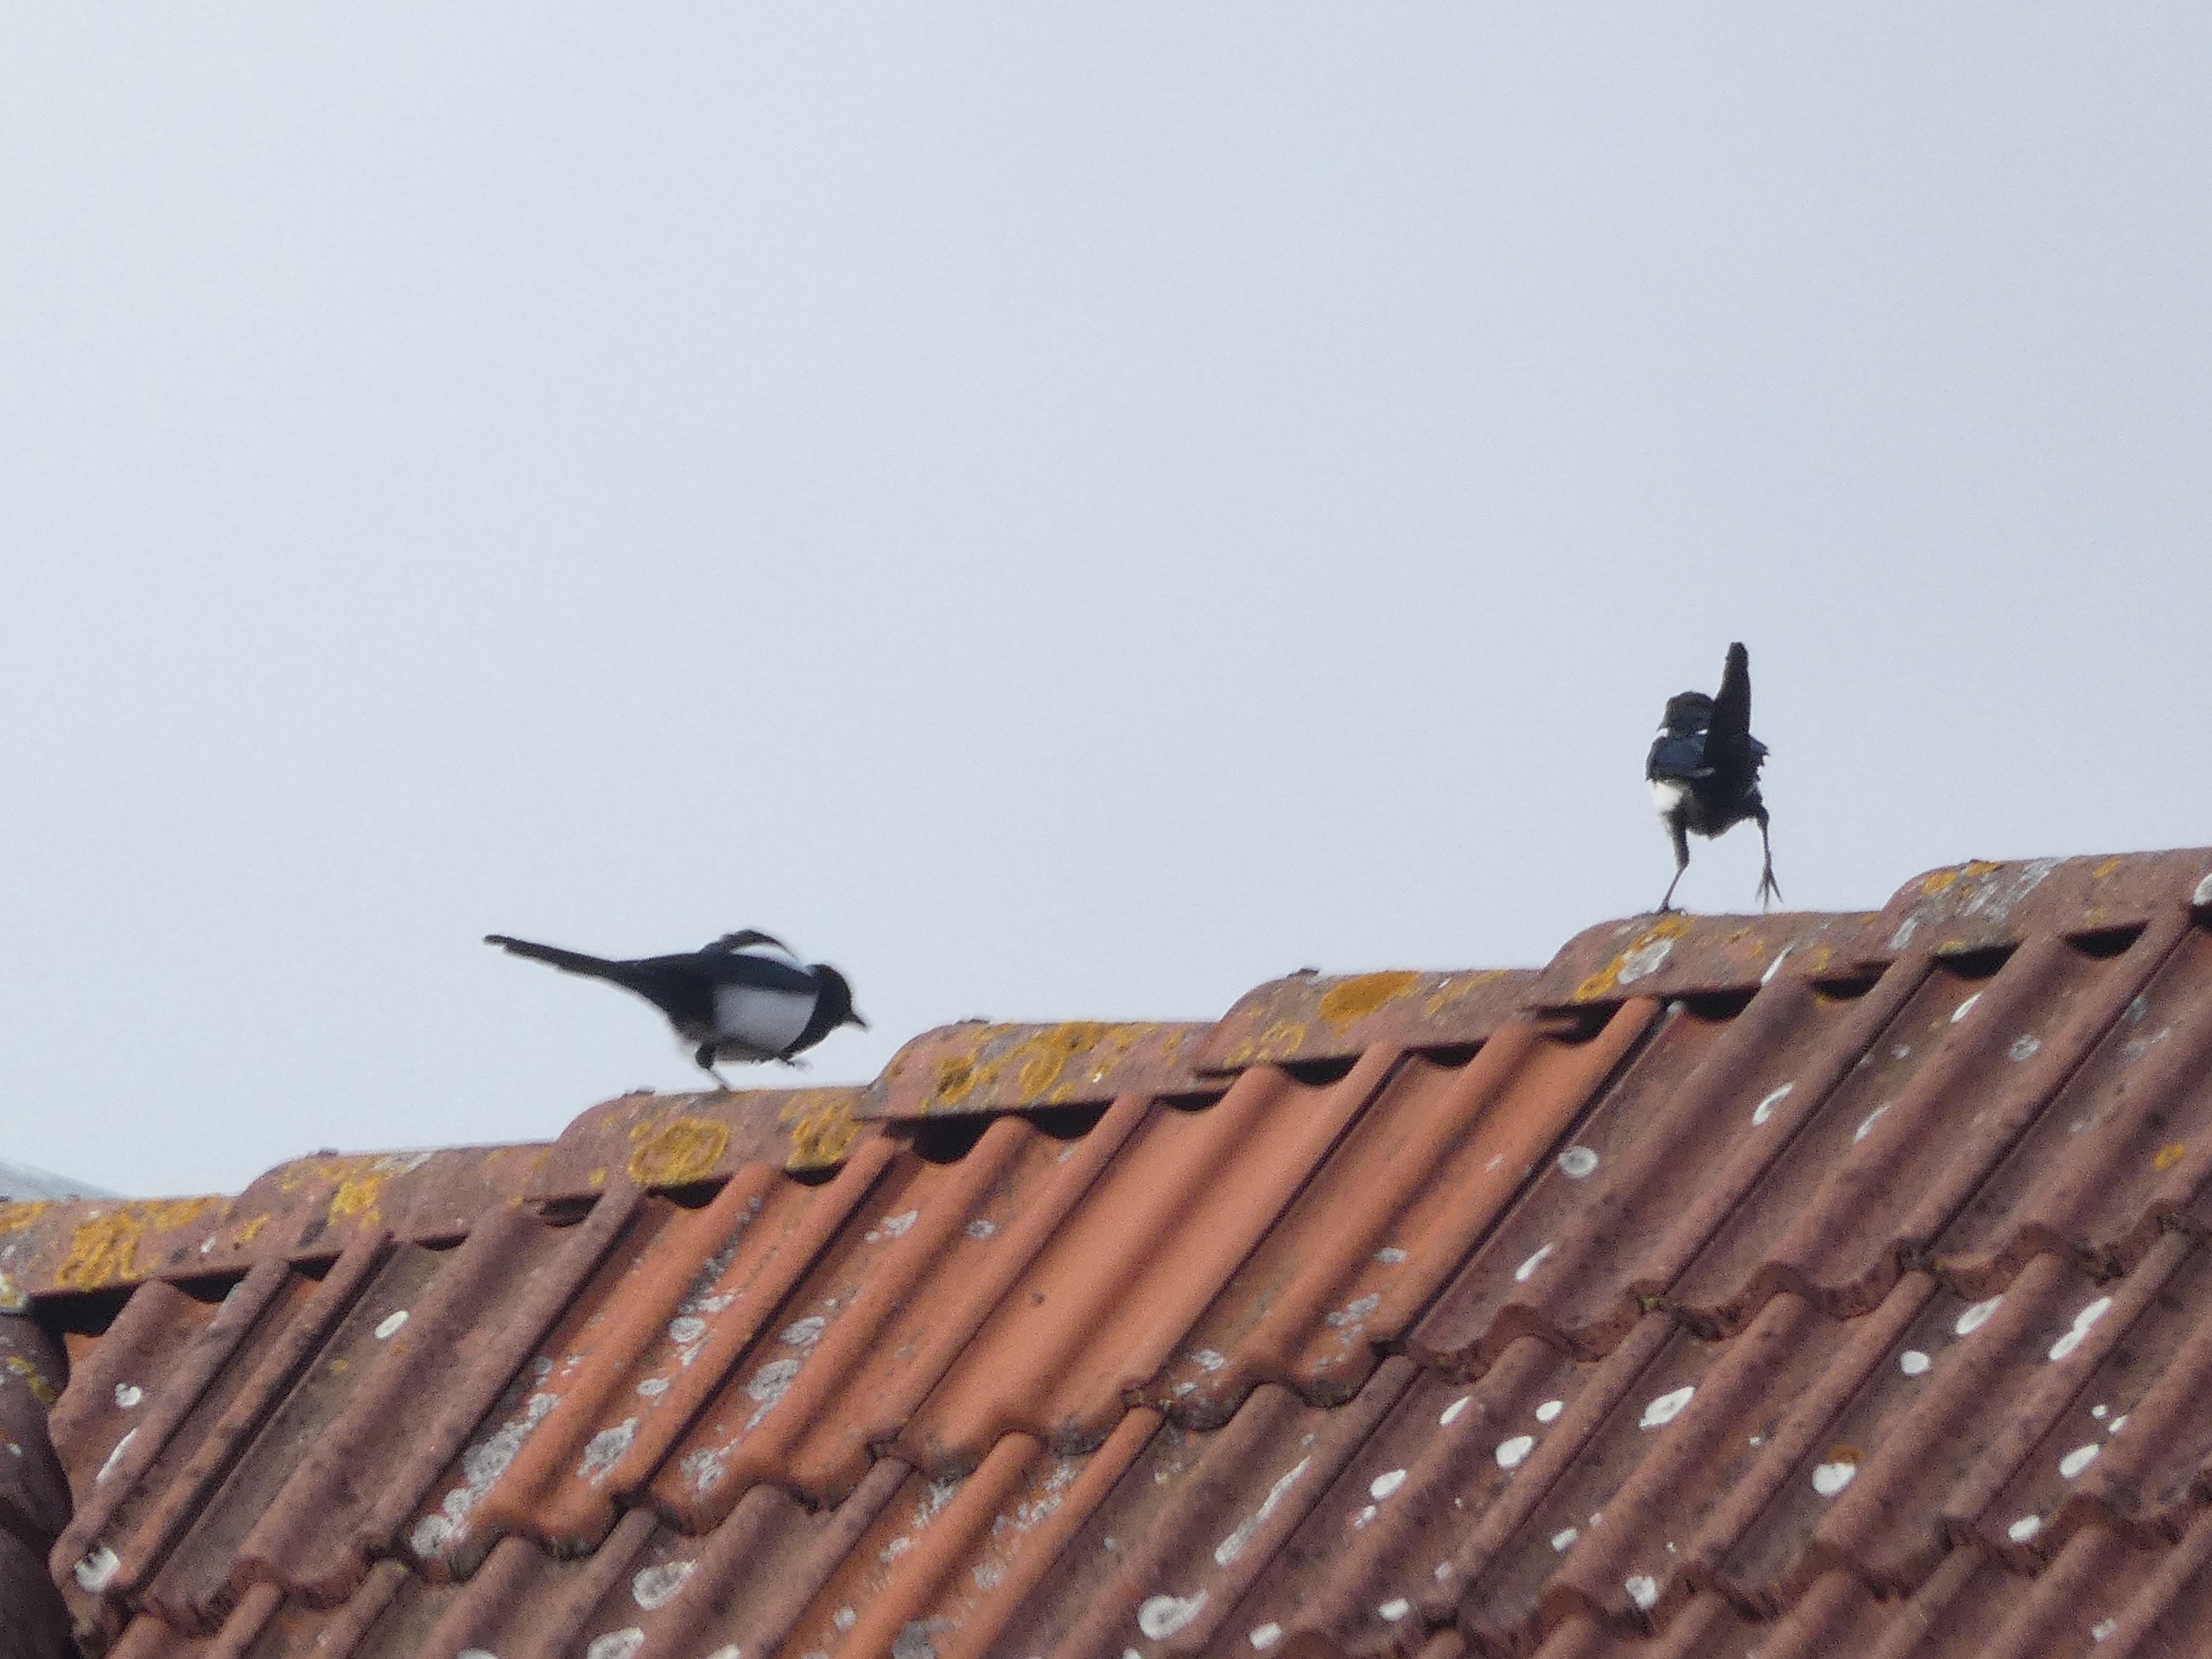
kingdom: Animalia
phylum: Chordata
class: Aves
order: Passeriformes
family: Corvidae
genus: Pica
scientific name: Pica pica
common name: Husskade
